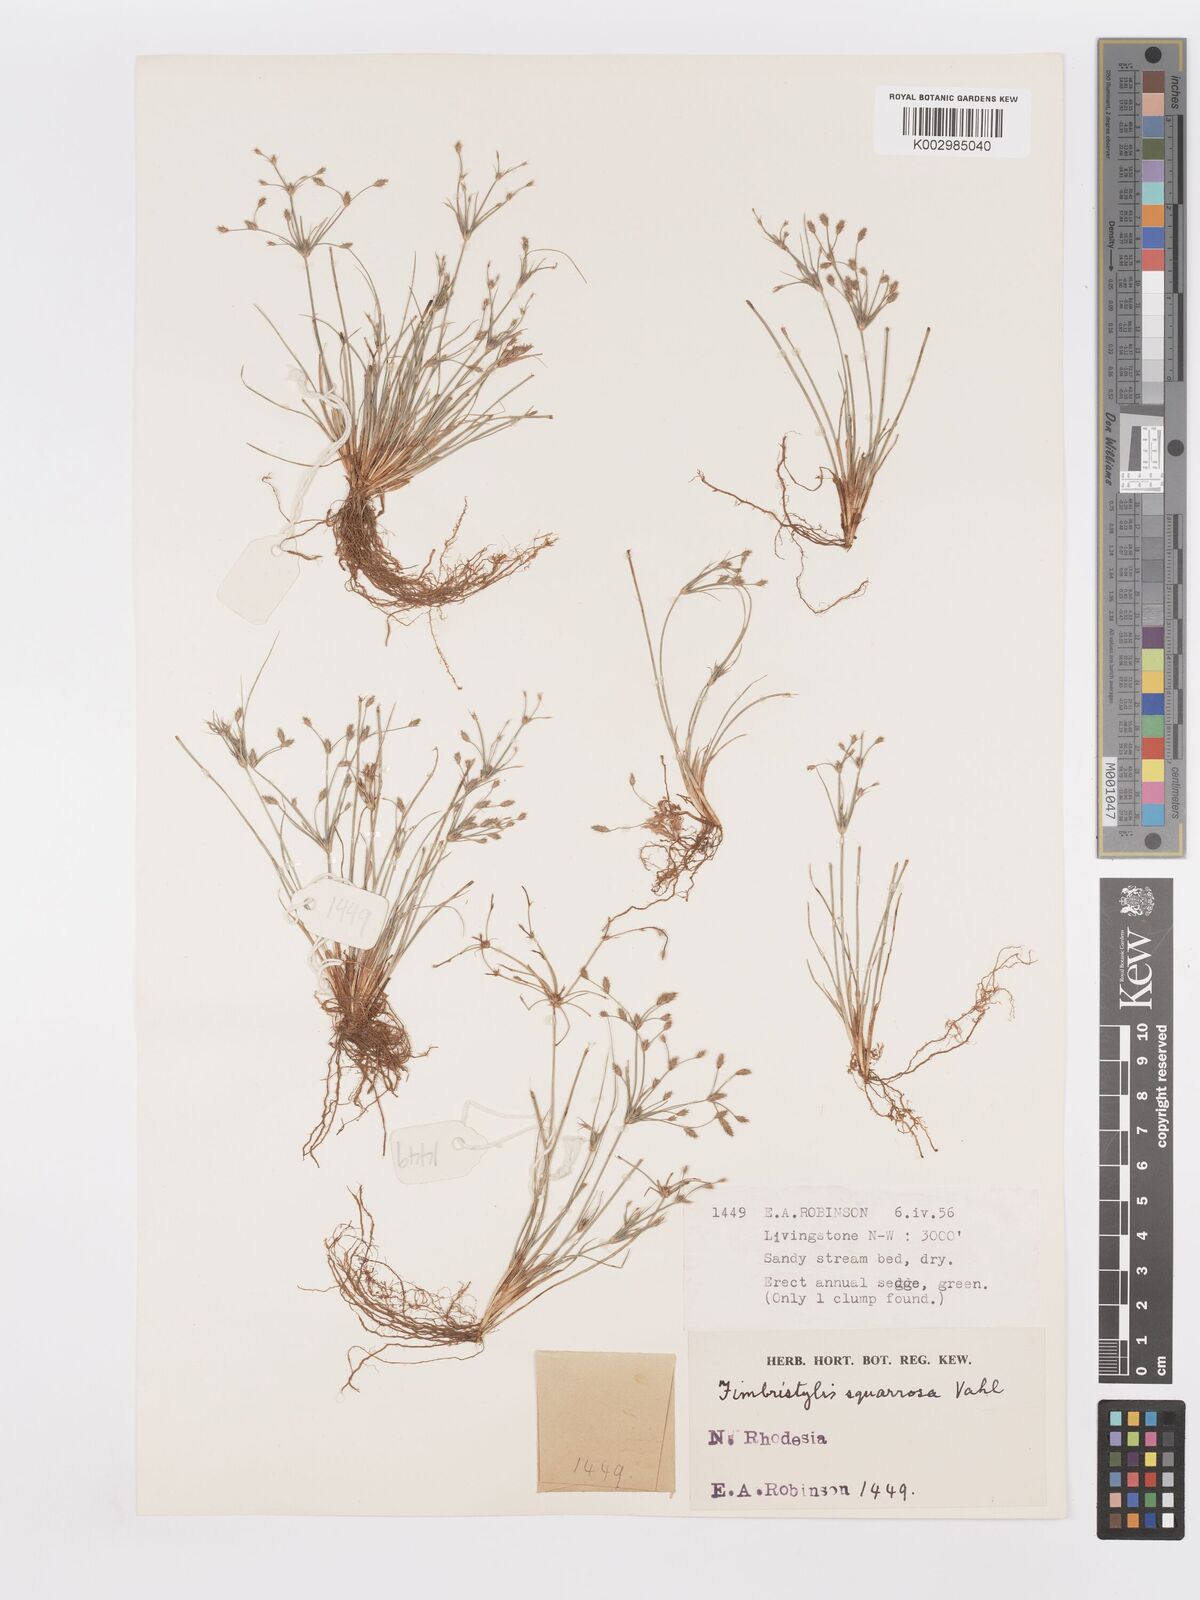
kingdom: Plantae
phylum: Tracheophyta
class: Liliopsida
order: Poales
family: Cyperaceae
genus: Fimbristylis
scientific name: Fimbristylis squarrosa
